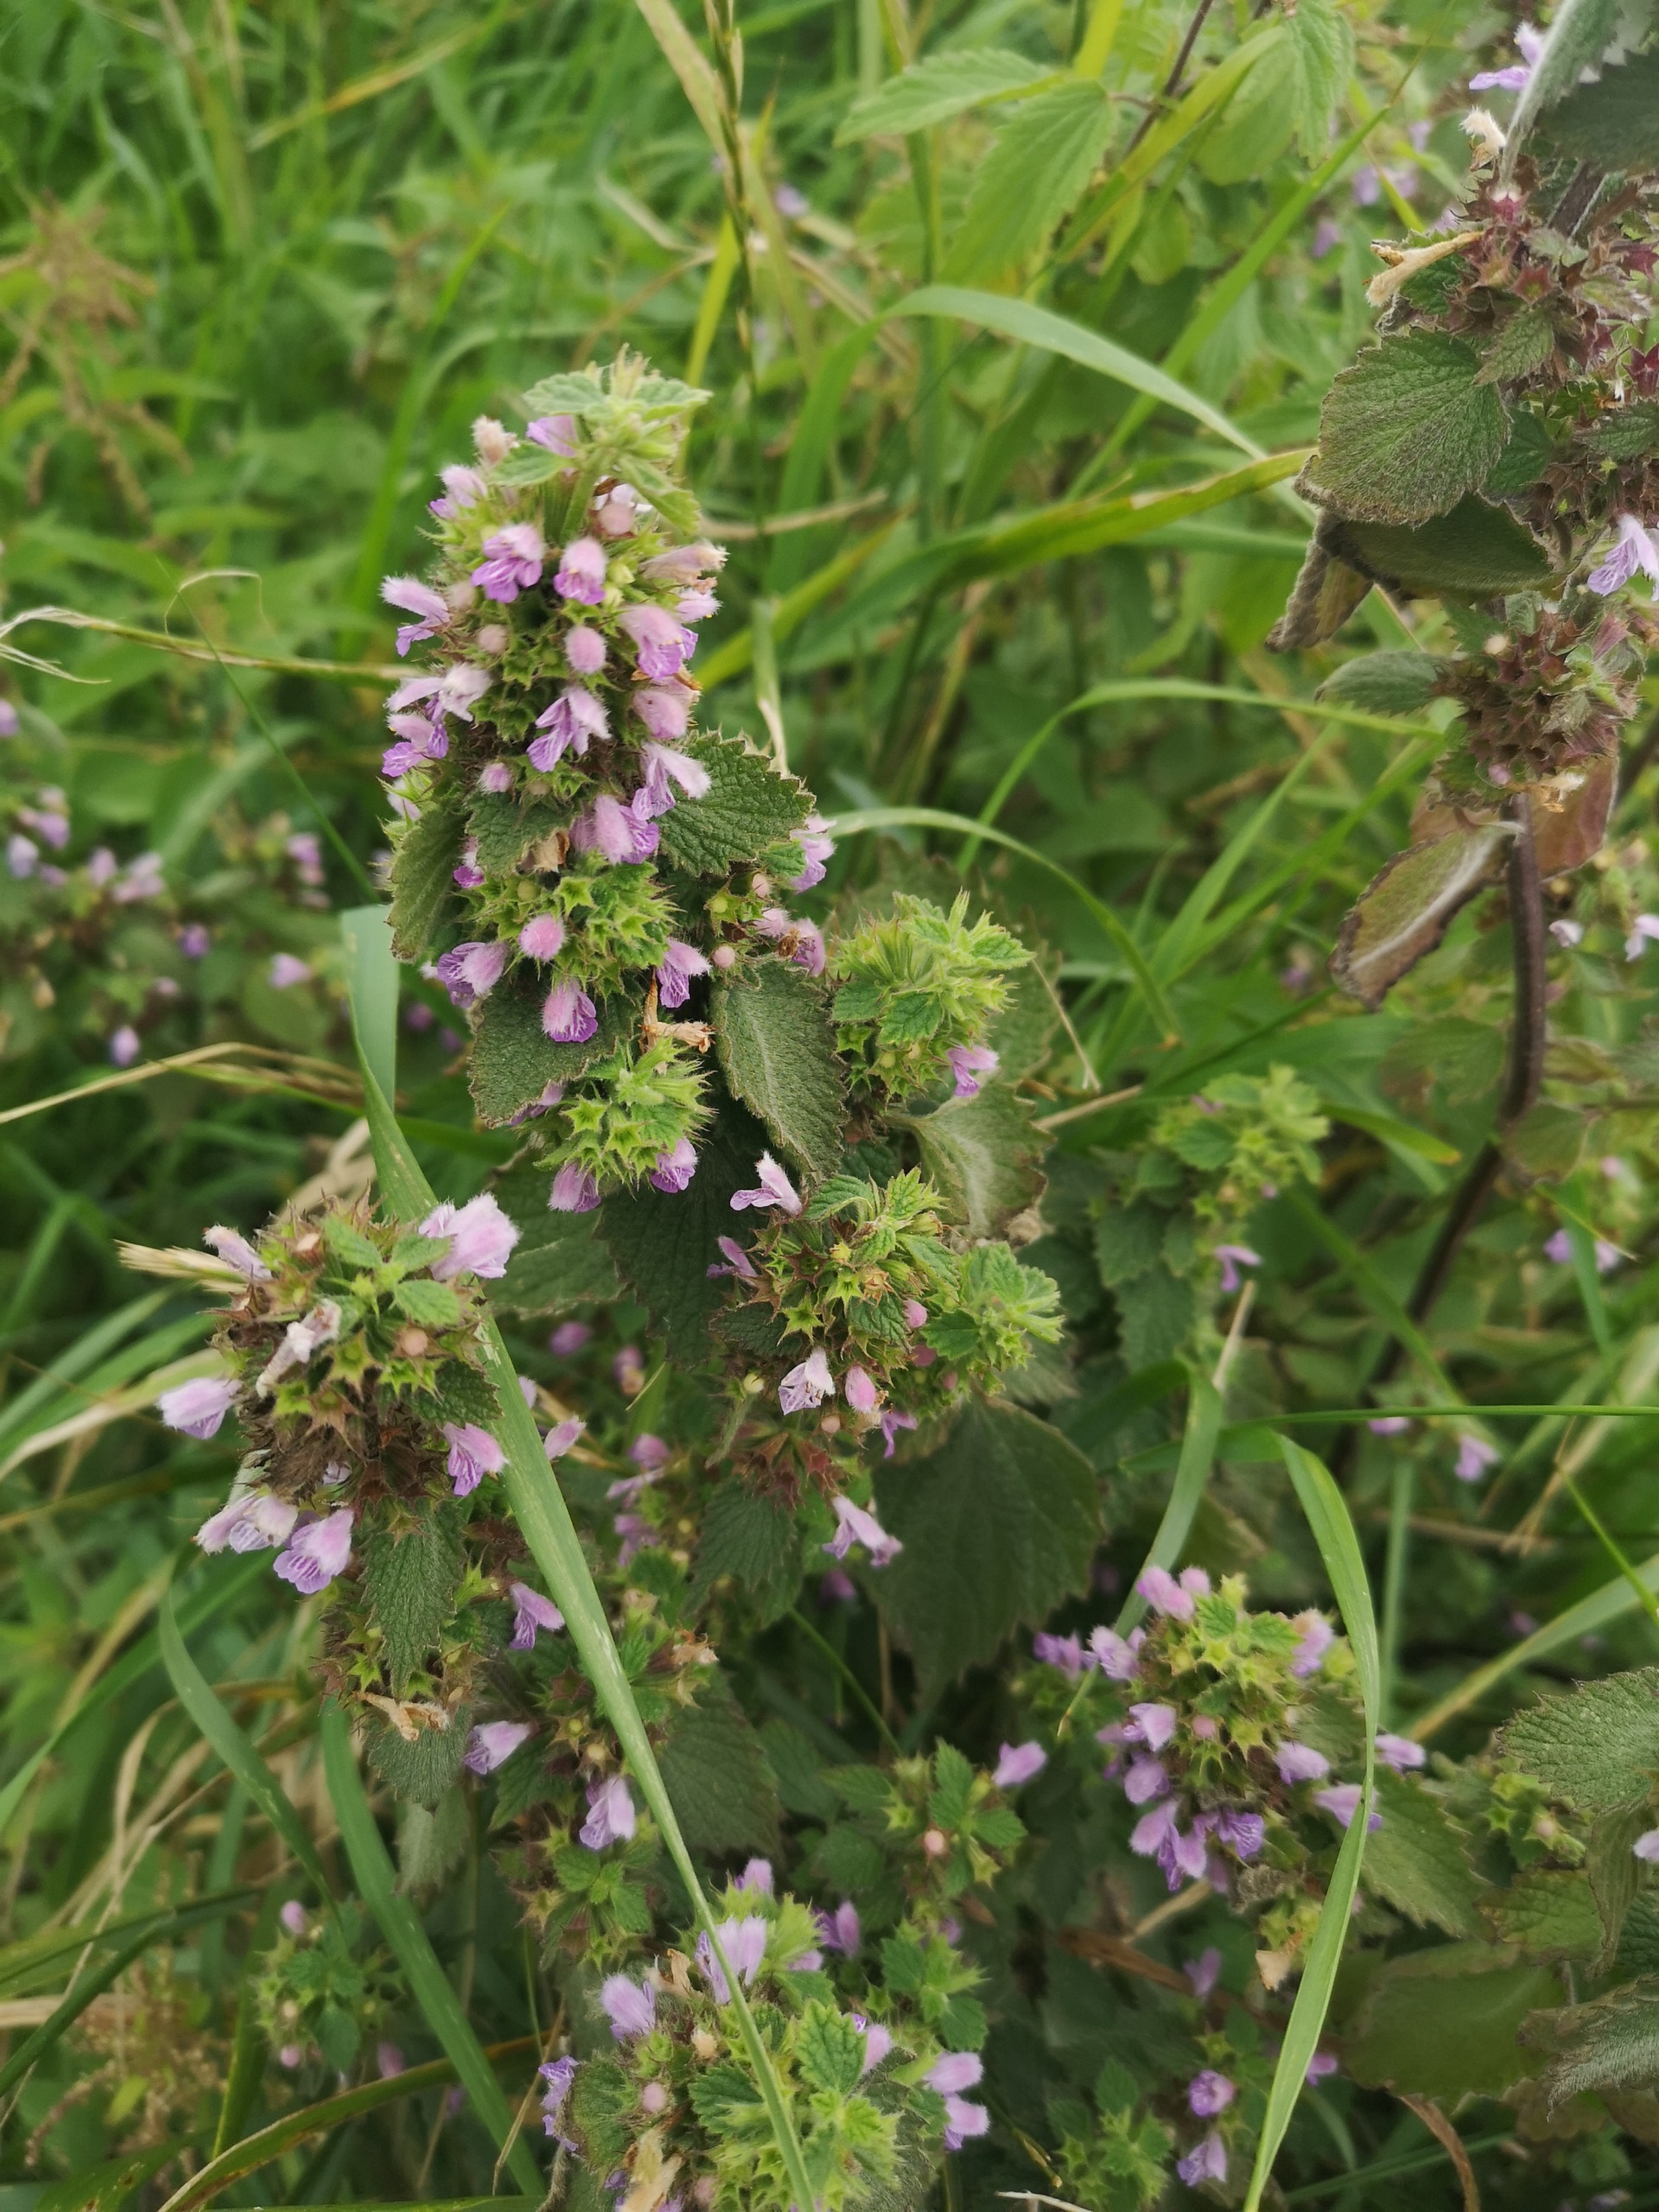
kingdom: Plantae
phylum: Tracheophyta
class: Magnoliopsida
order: Lamiales
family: Lamiaceae
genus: Ballota
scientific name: Ballota nigra
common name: Tandbæger
